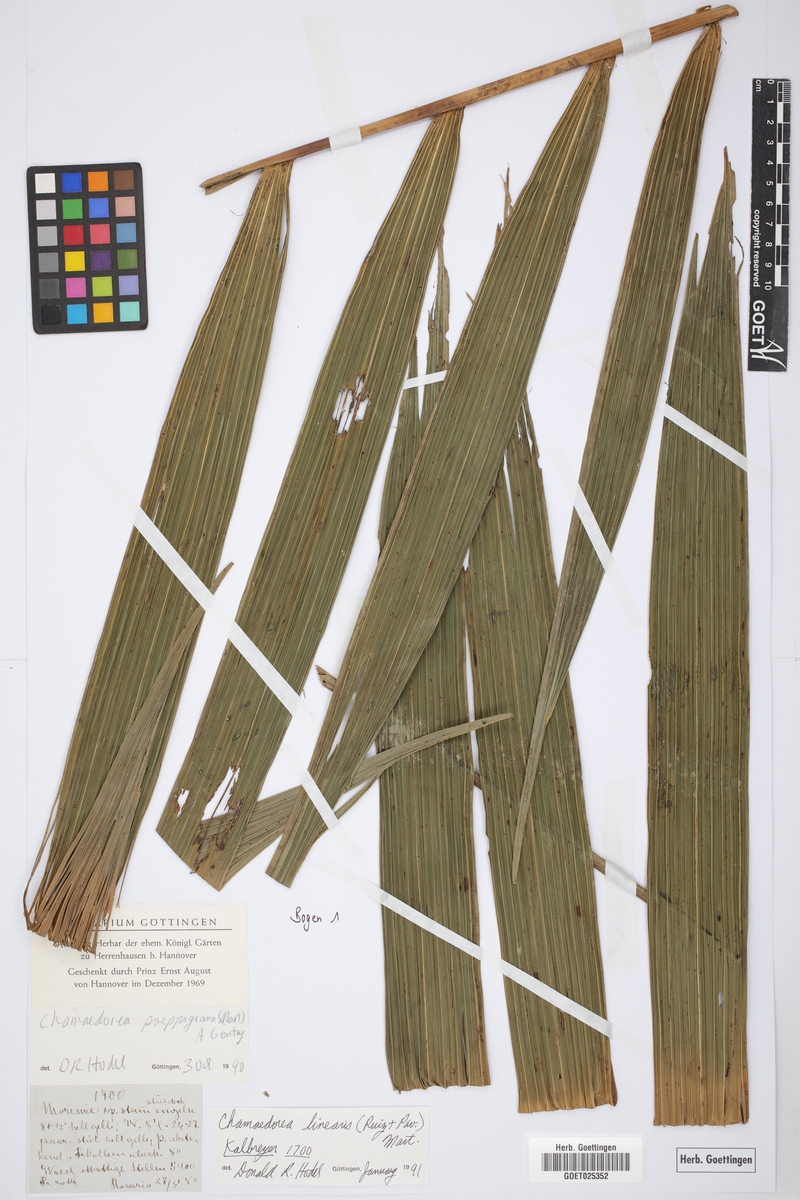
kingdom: Plantae
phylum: Tracheophyta
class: Liliopsida
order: Arecales
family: Arecaceae
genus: Chamaedorea
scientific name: Chamaedorea linearis
